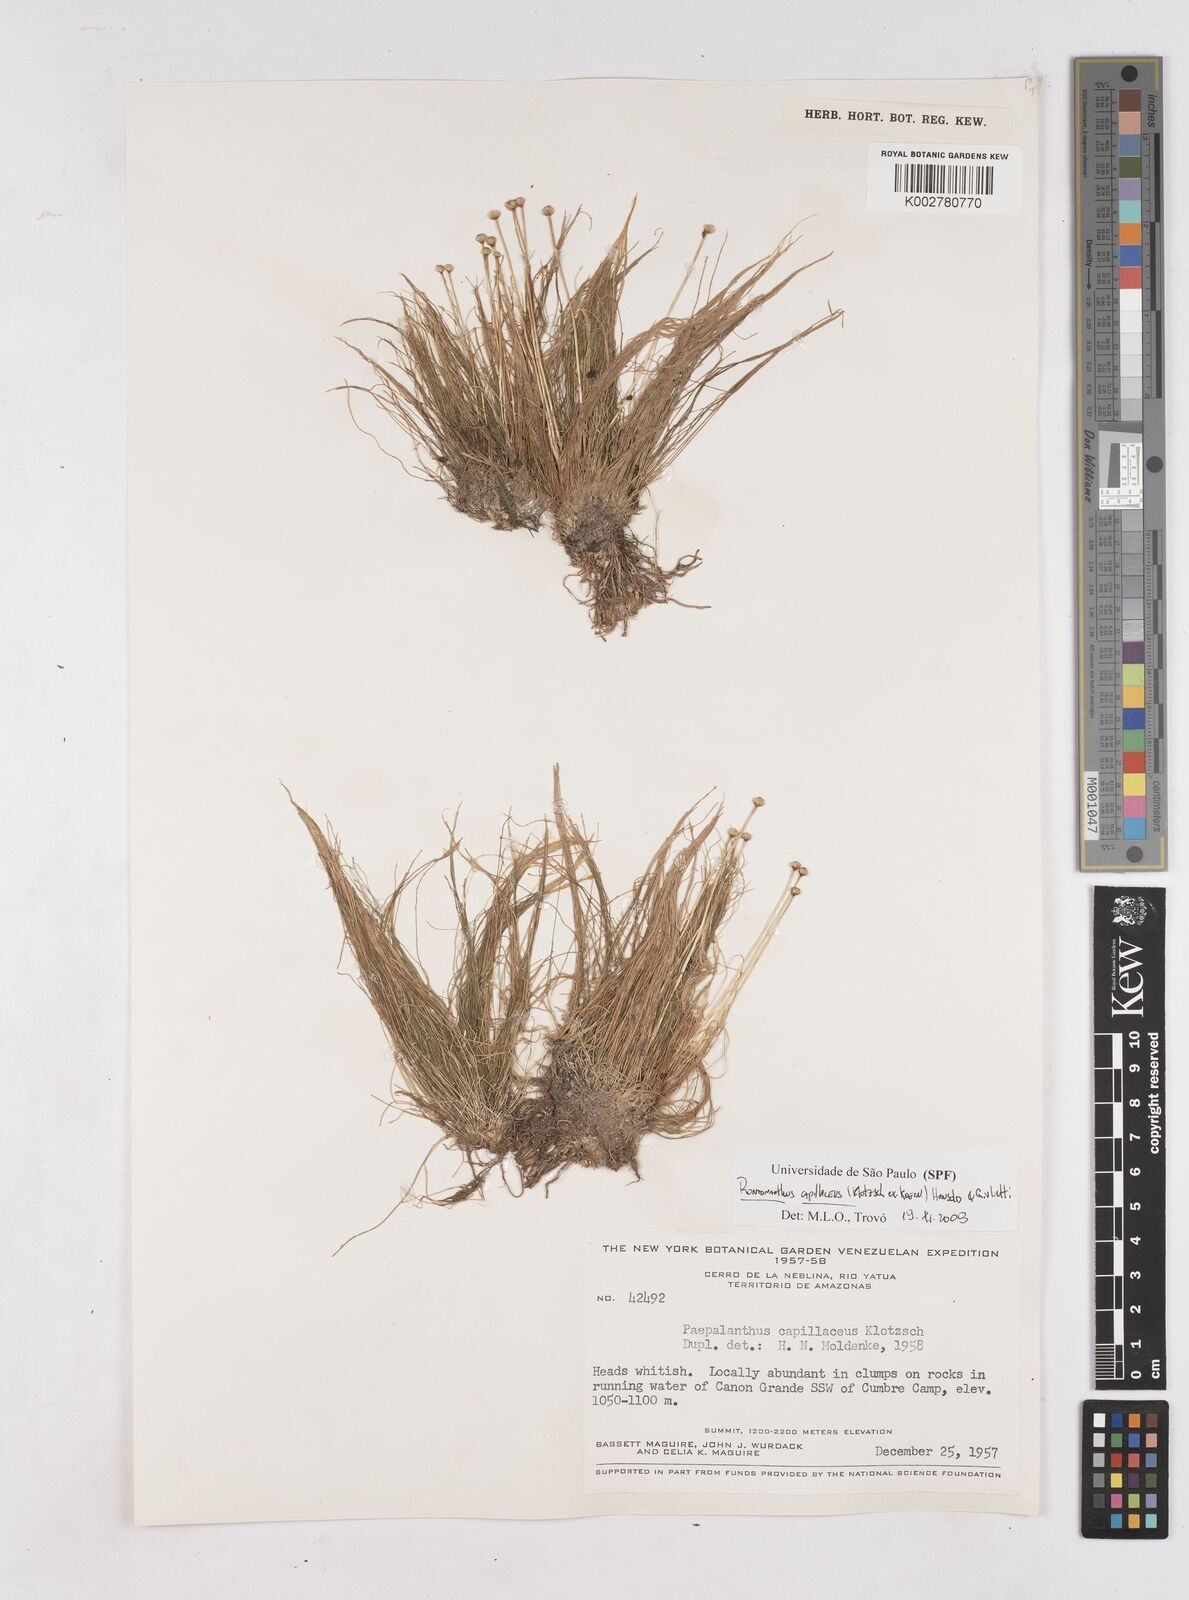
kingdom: Plantae
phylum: Tracheophyta
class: Liliopsida
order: Poales
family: Eriocaulaceae
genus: Rondonanthus
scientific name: Rondonanthus capillaceus
